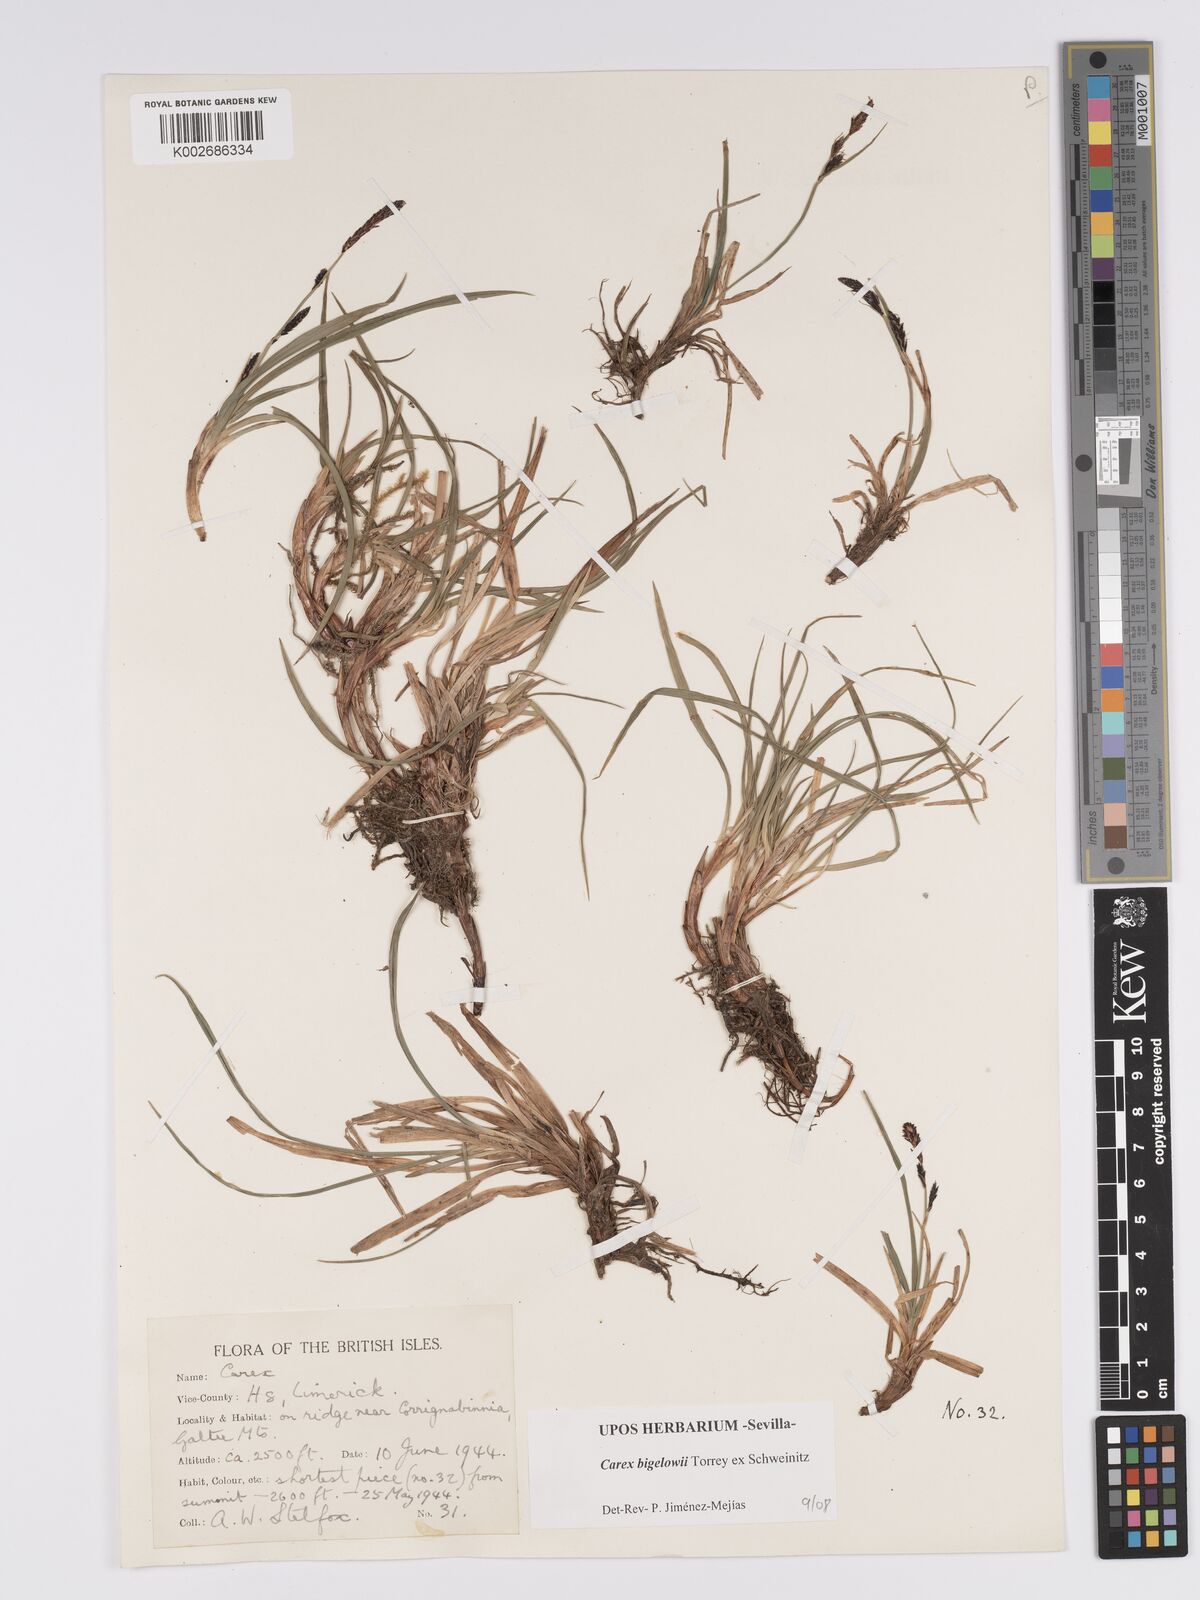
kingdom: Plantae
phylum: Tracheophyta
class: Liliopsida
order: Poales
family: Cyperaceae
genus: Carex
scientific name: Carex bigelowii
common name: Stiff sedge
